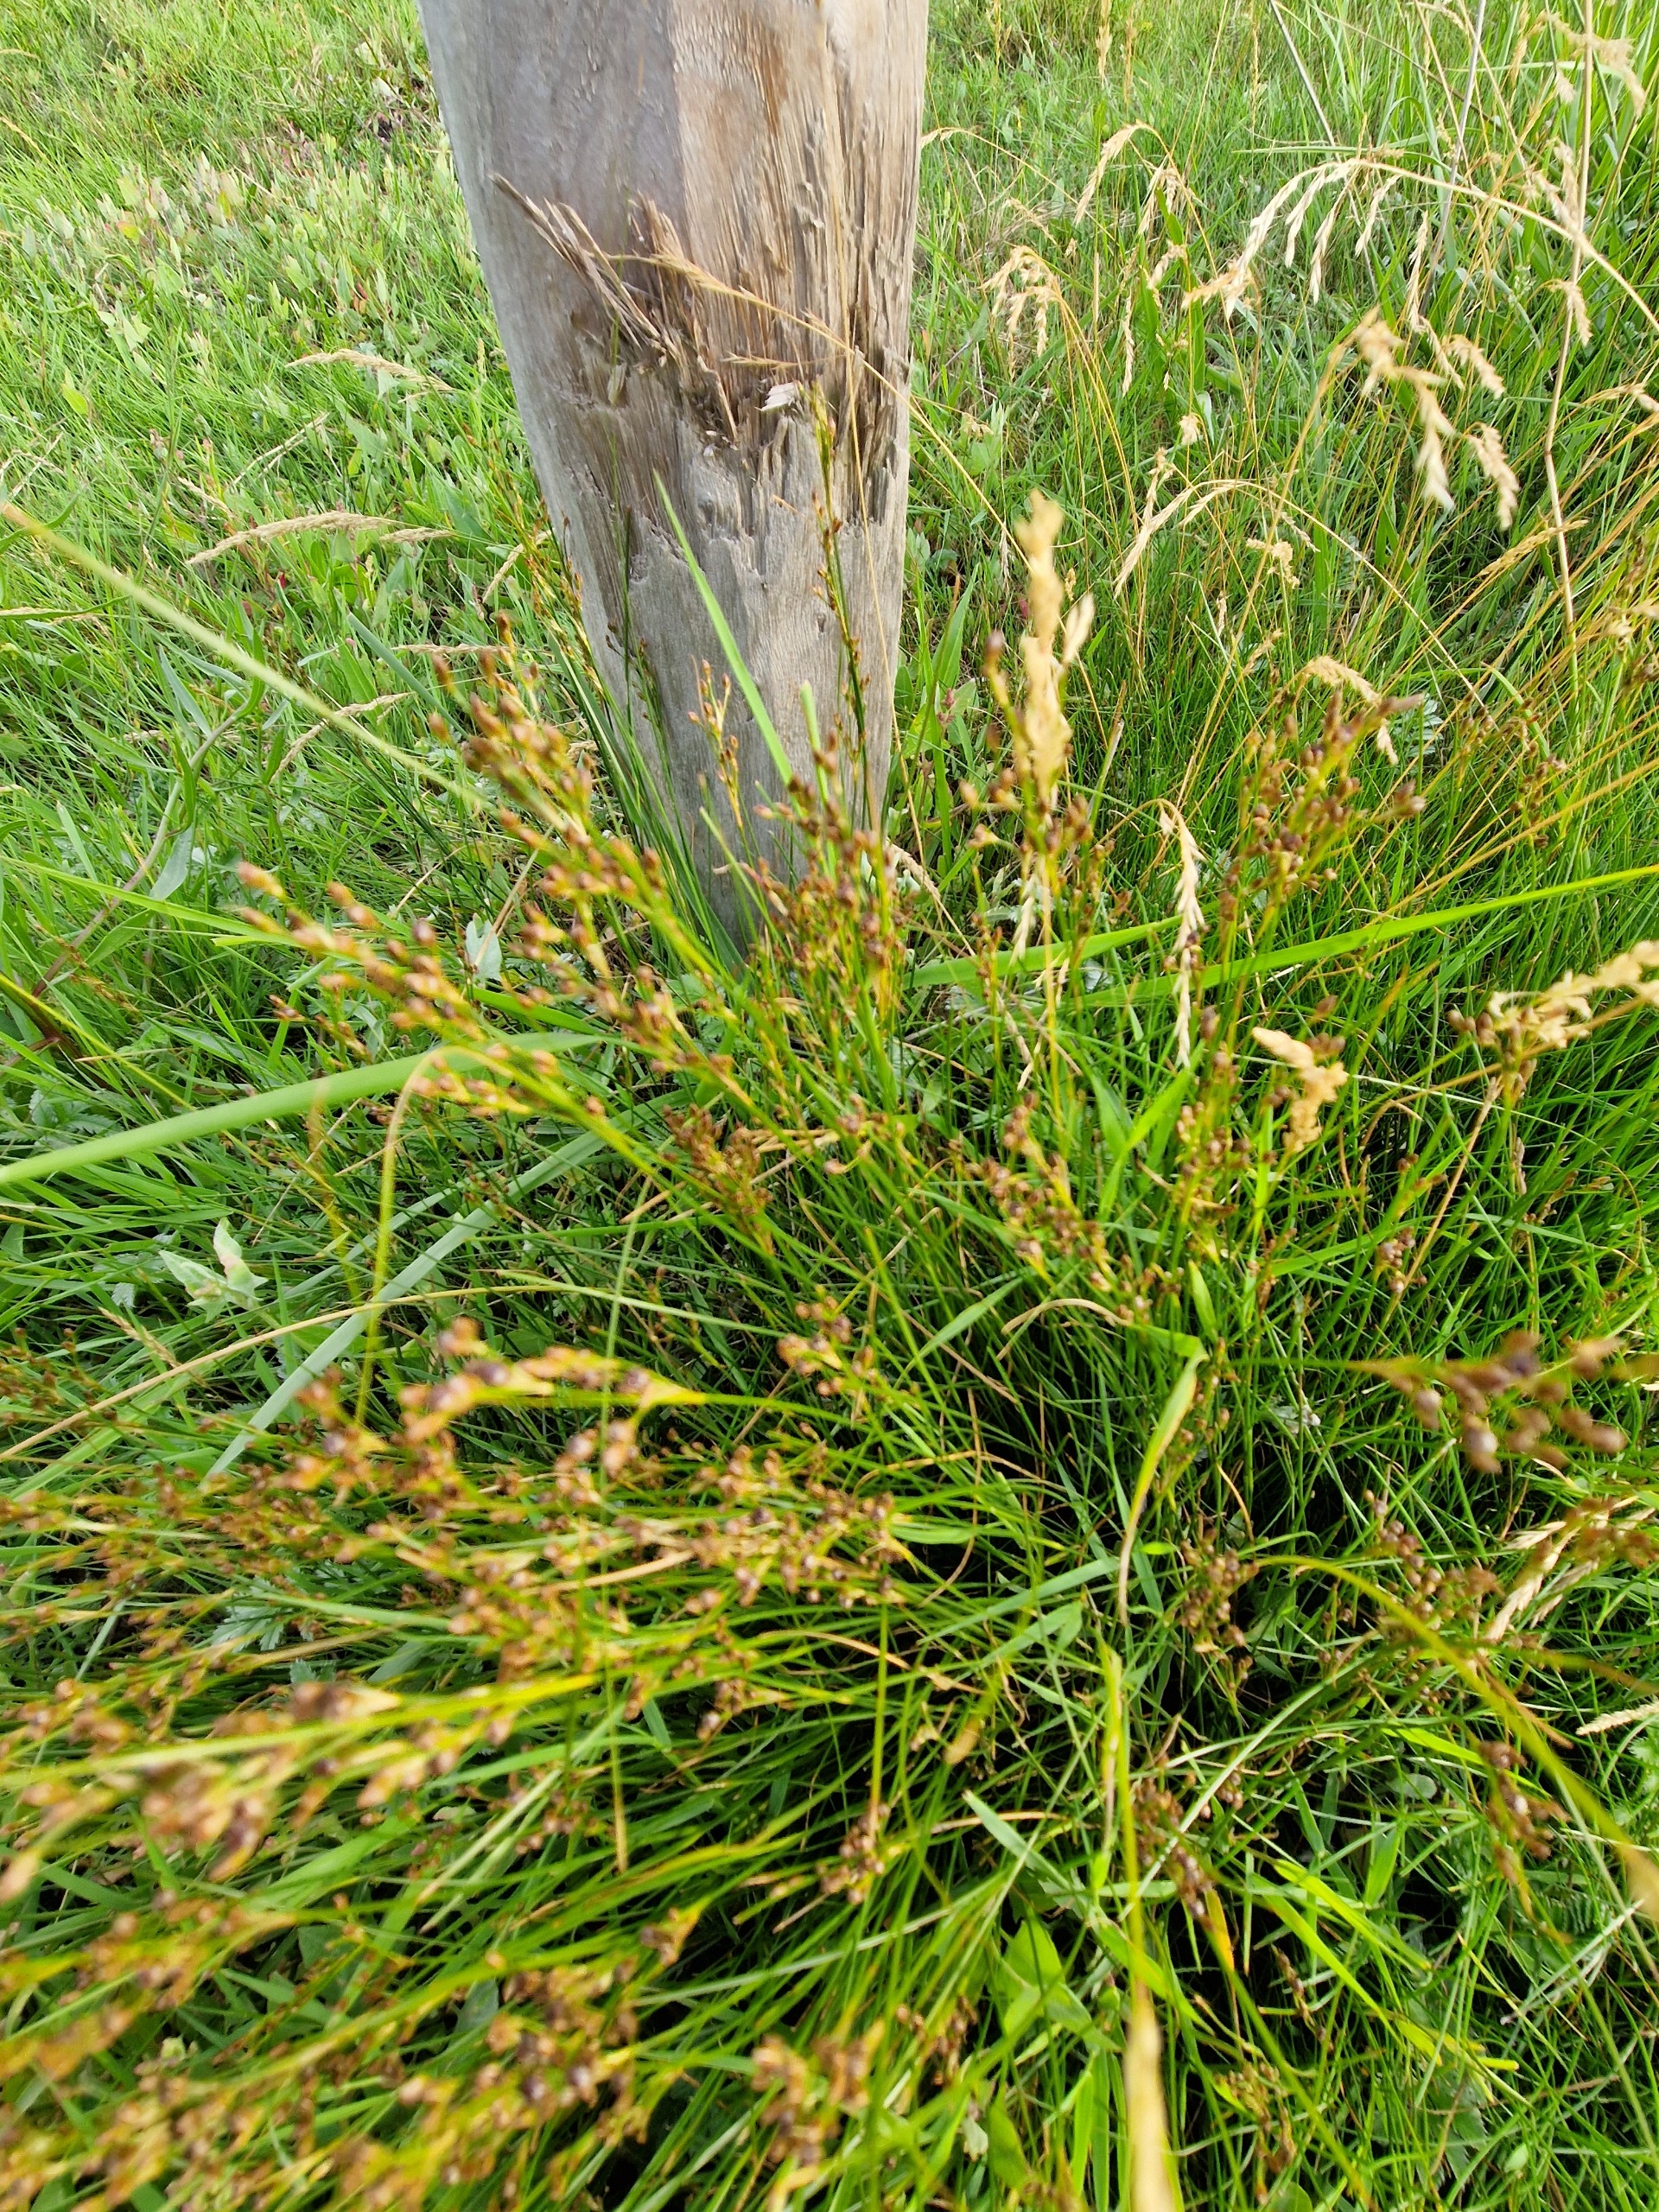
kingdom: Plantae
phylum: Tracheophyta
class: Liliopsida
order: Poales
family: Juncaceae
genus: Juncus
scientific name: Juncus gerardi
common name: Harril
